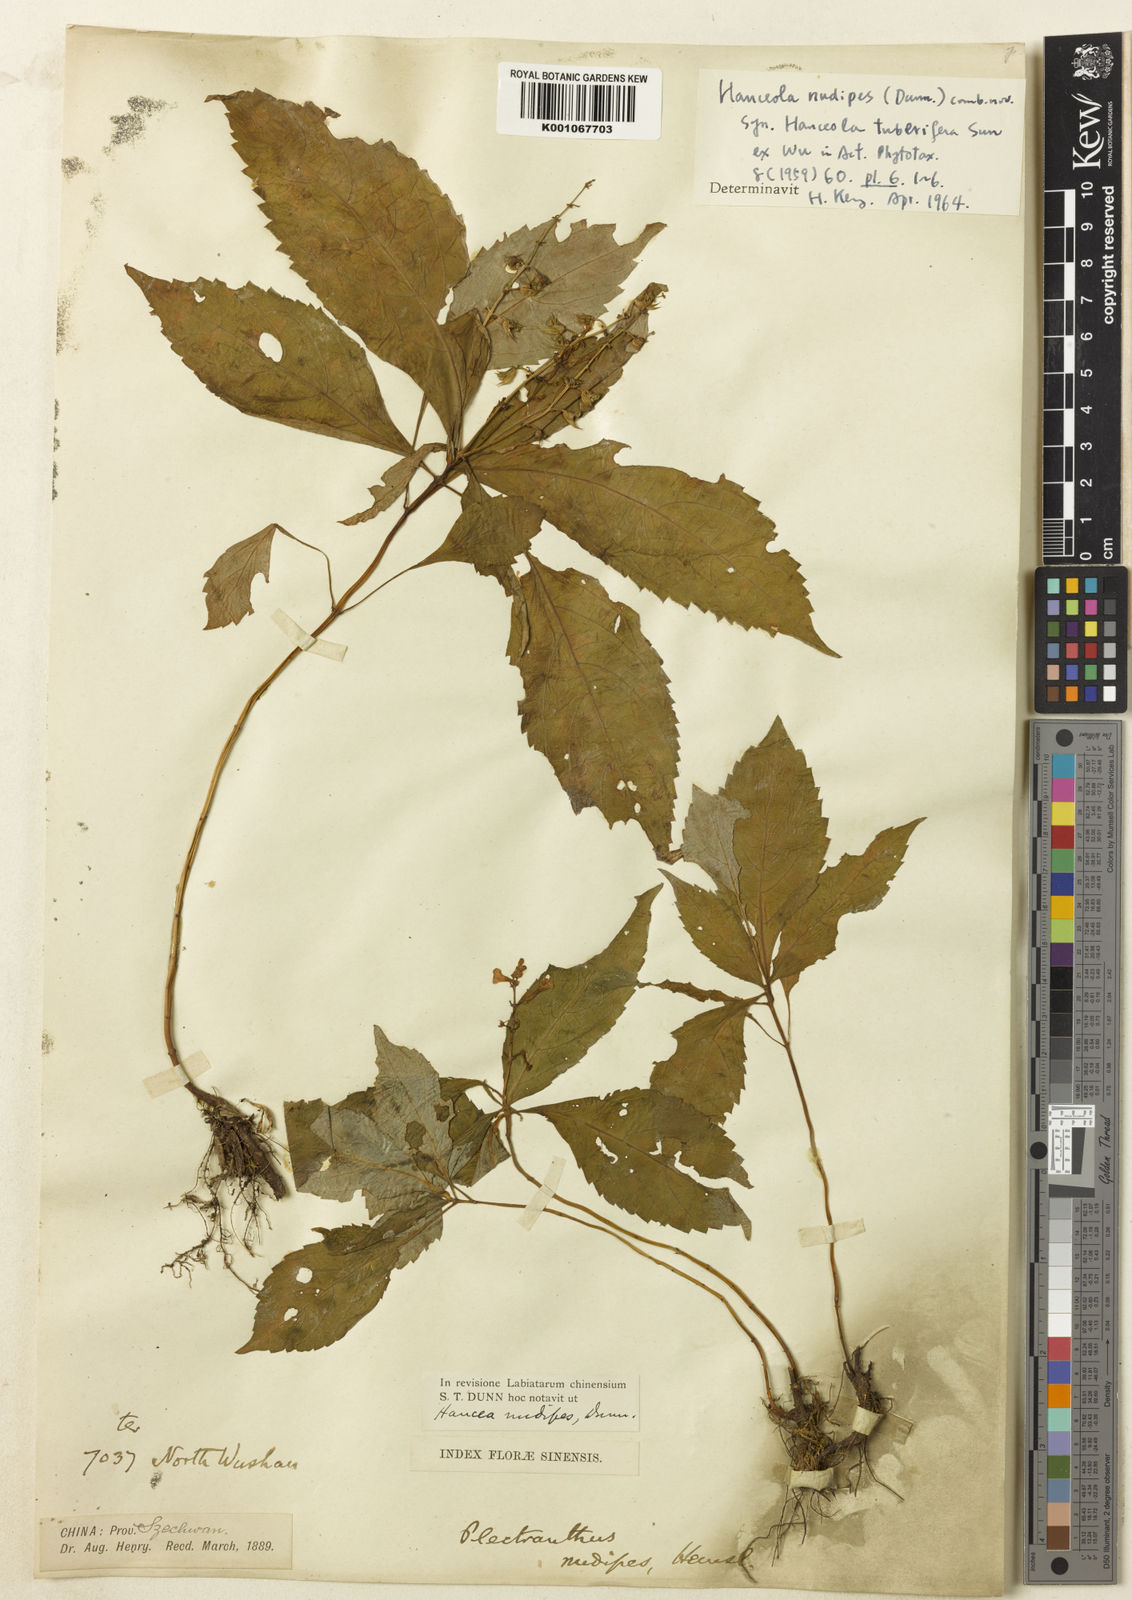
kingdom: Plantae
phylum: Tracheophyta
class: Magnoliopsida
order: Lamiales
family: Lamiaceae
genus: Siphocranion
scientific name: Siphocranion
